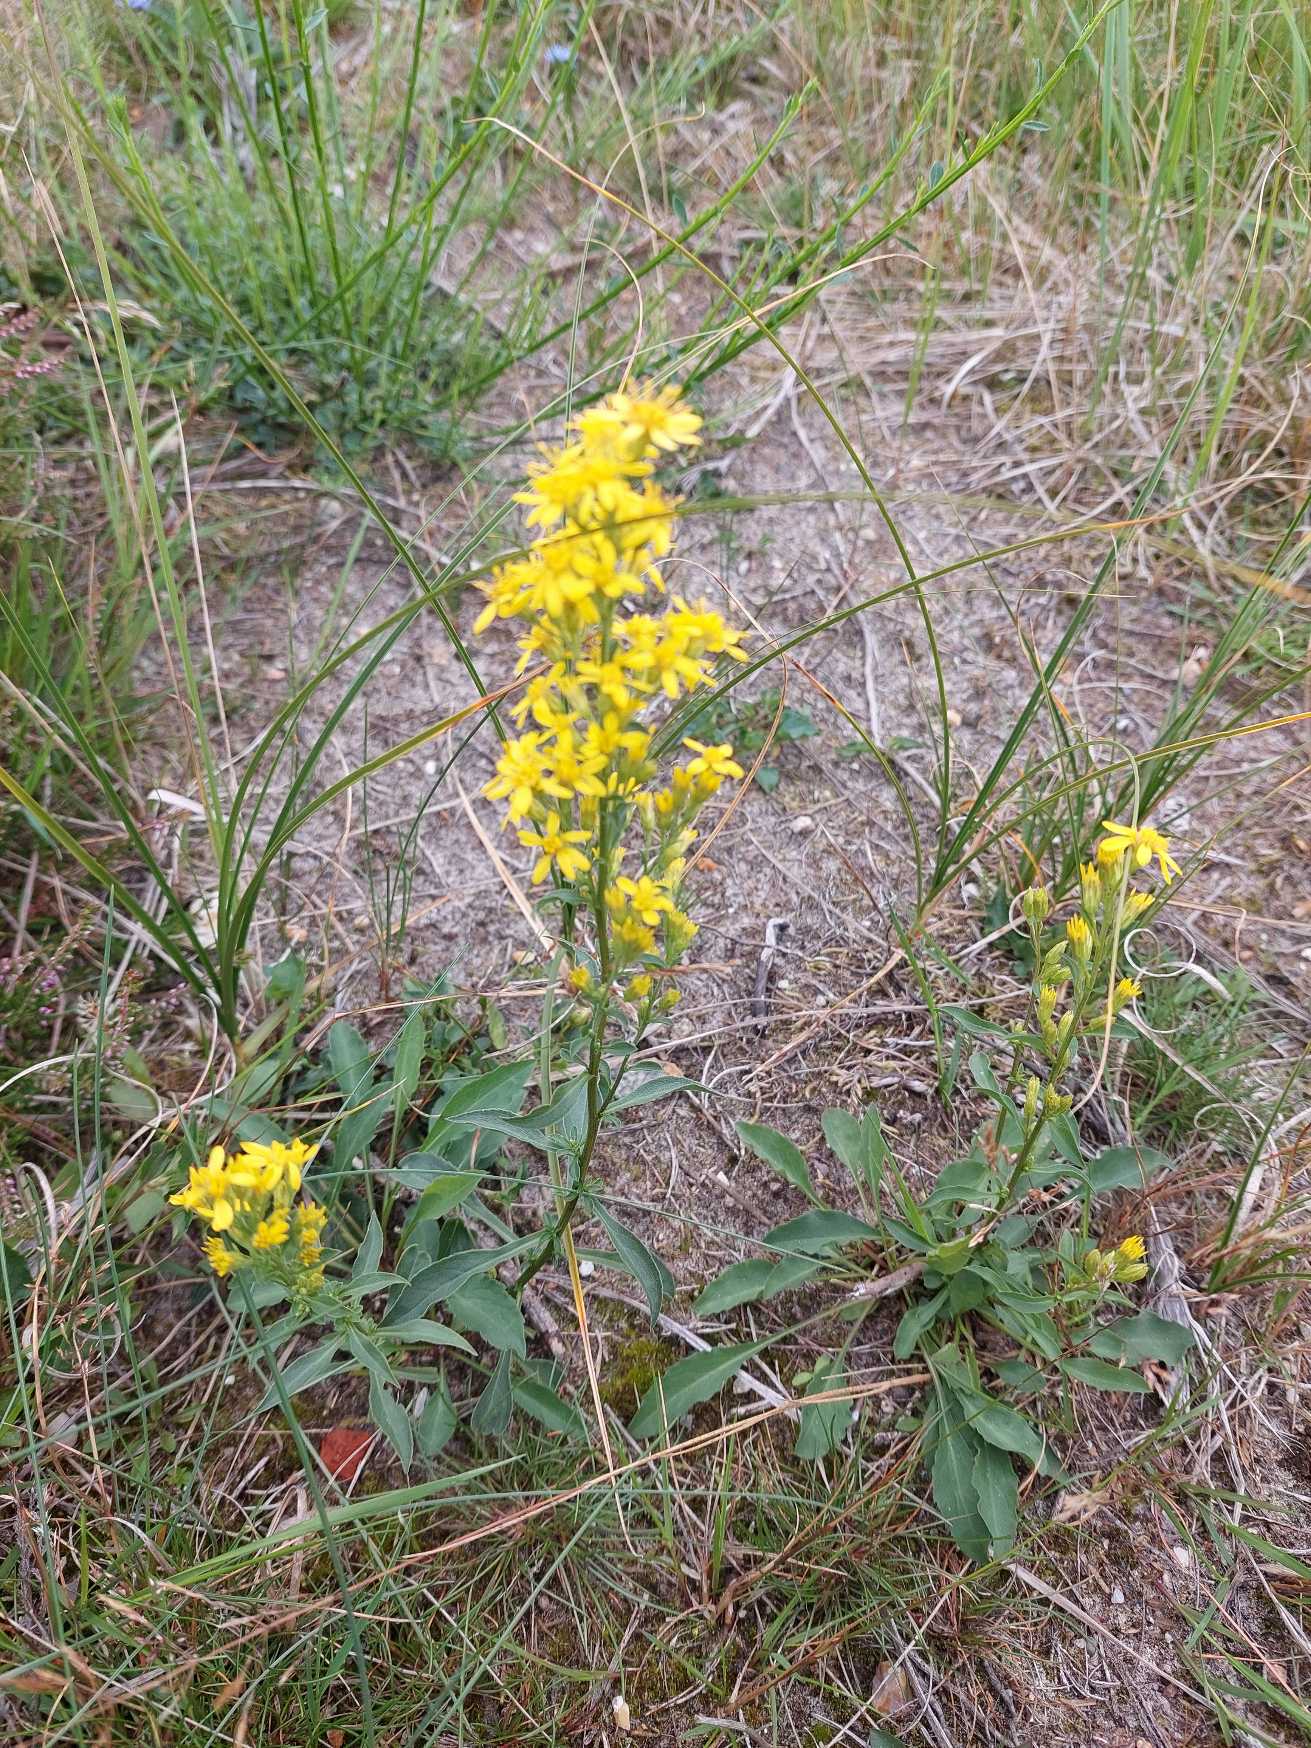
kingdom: Plantae
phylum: Tracheophyta
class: Magnoliopsida
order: Asterales
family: Asteraceae
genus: Solidago
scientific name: Solidago virgaurea
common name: Almindelig gyldenris
